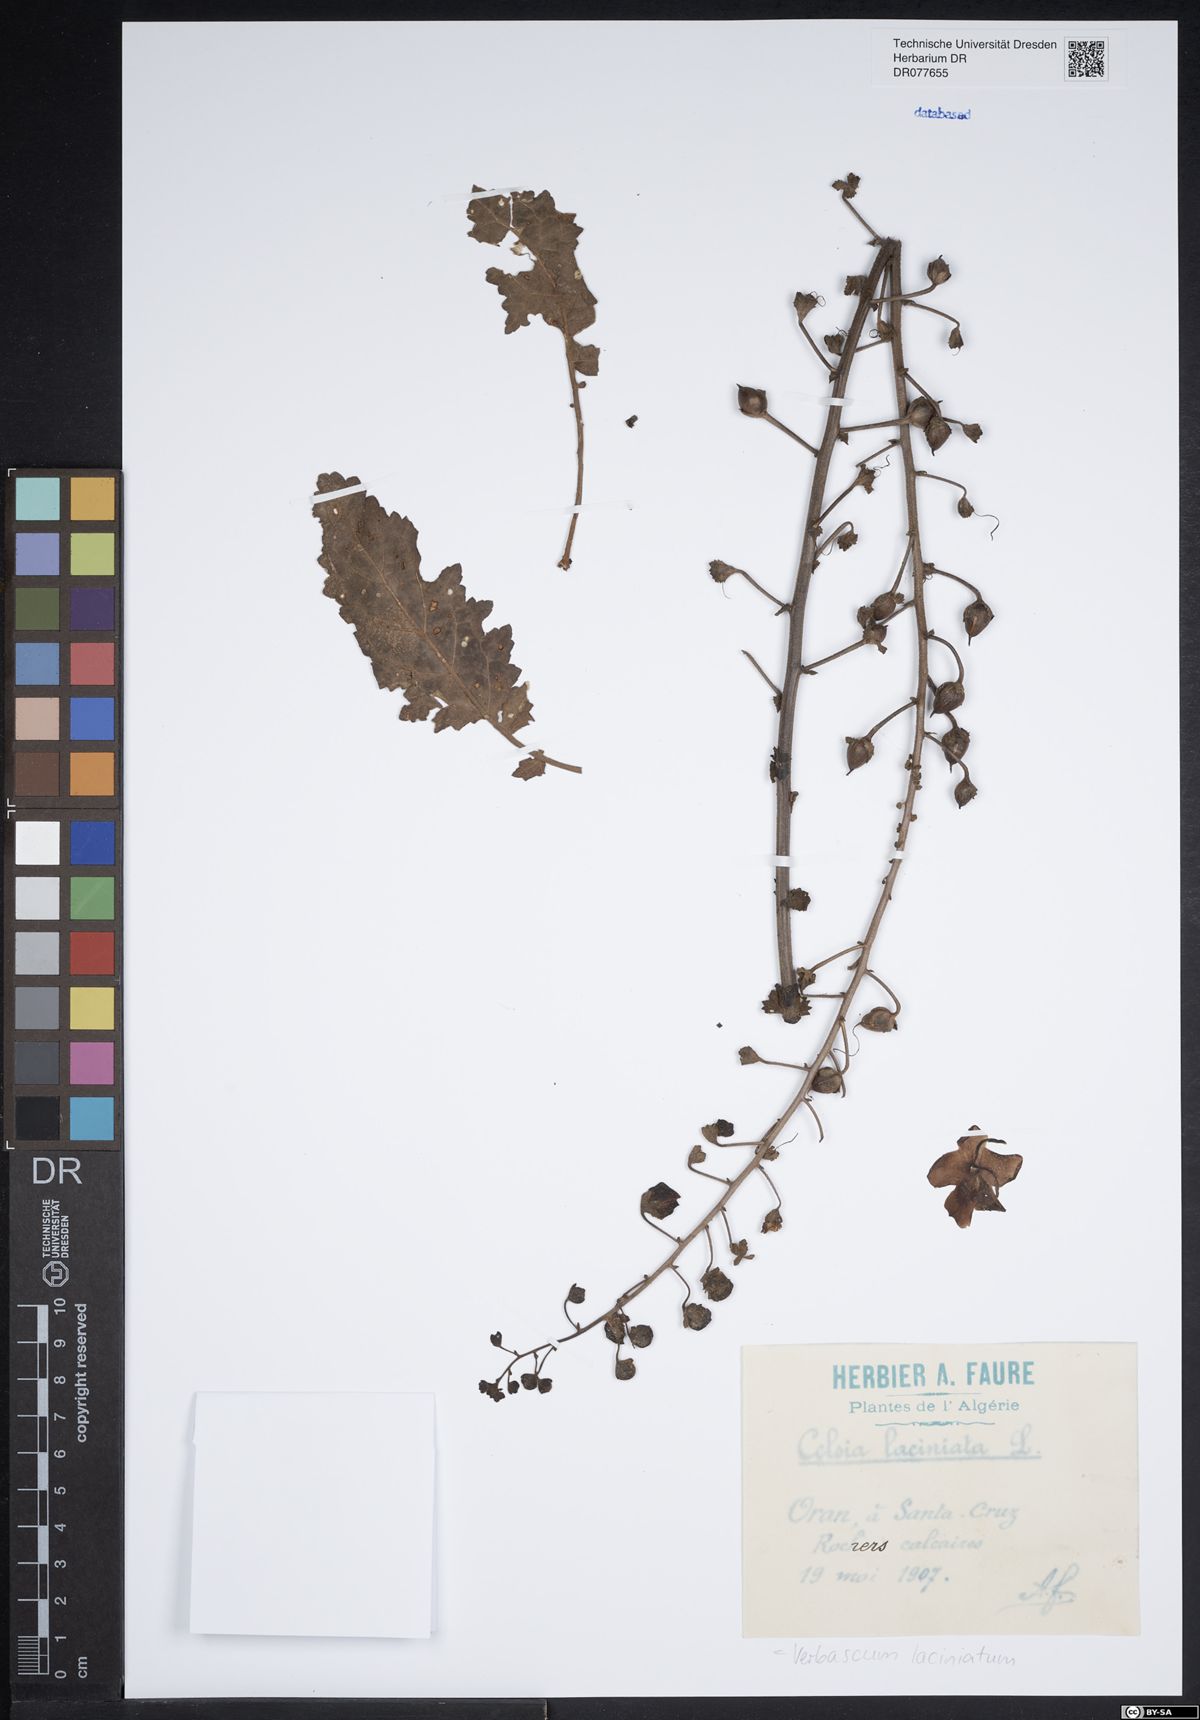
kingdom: Plantae
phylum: Tracheophyta
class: Magnoliopsida
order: Lamiales
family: Scrophulariaceae
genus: Verbascum
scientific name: Verbascum erosum
